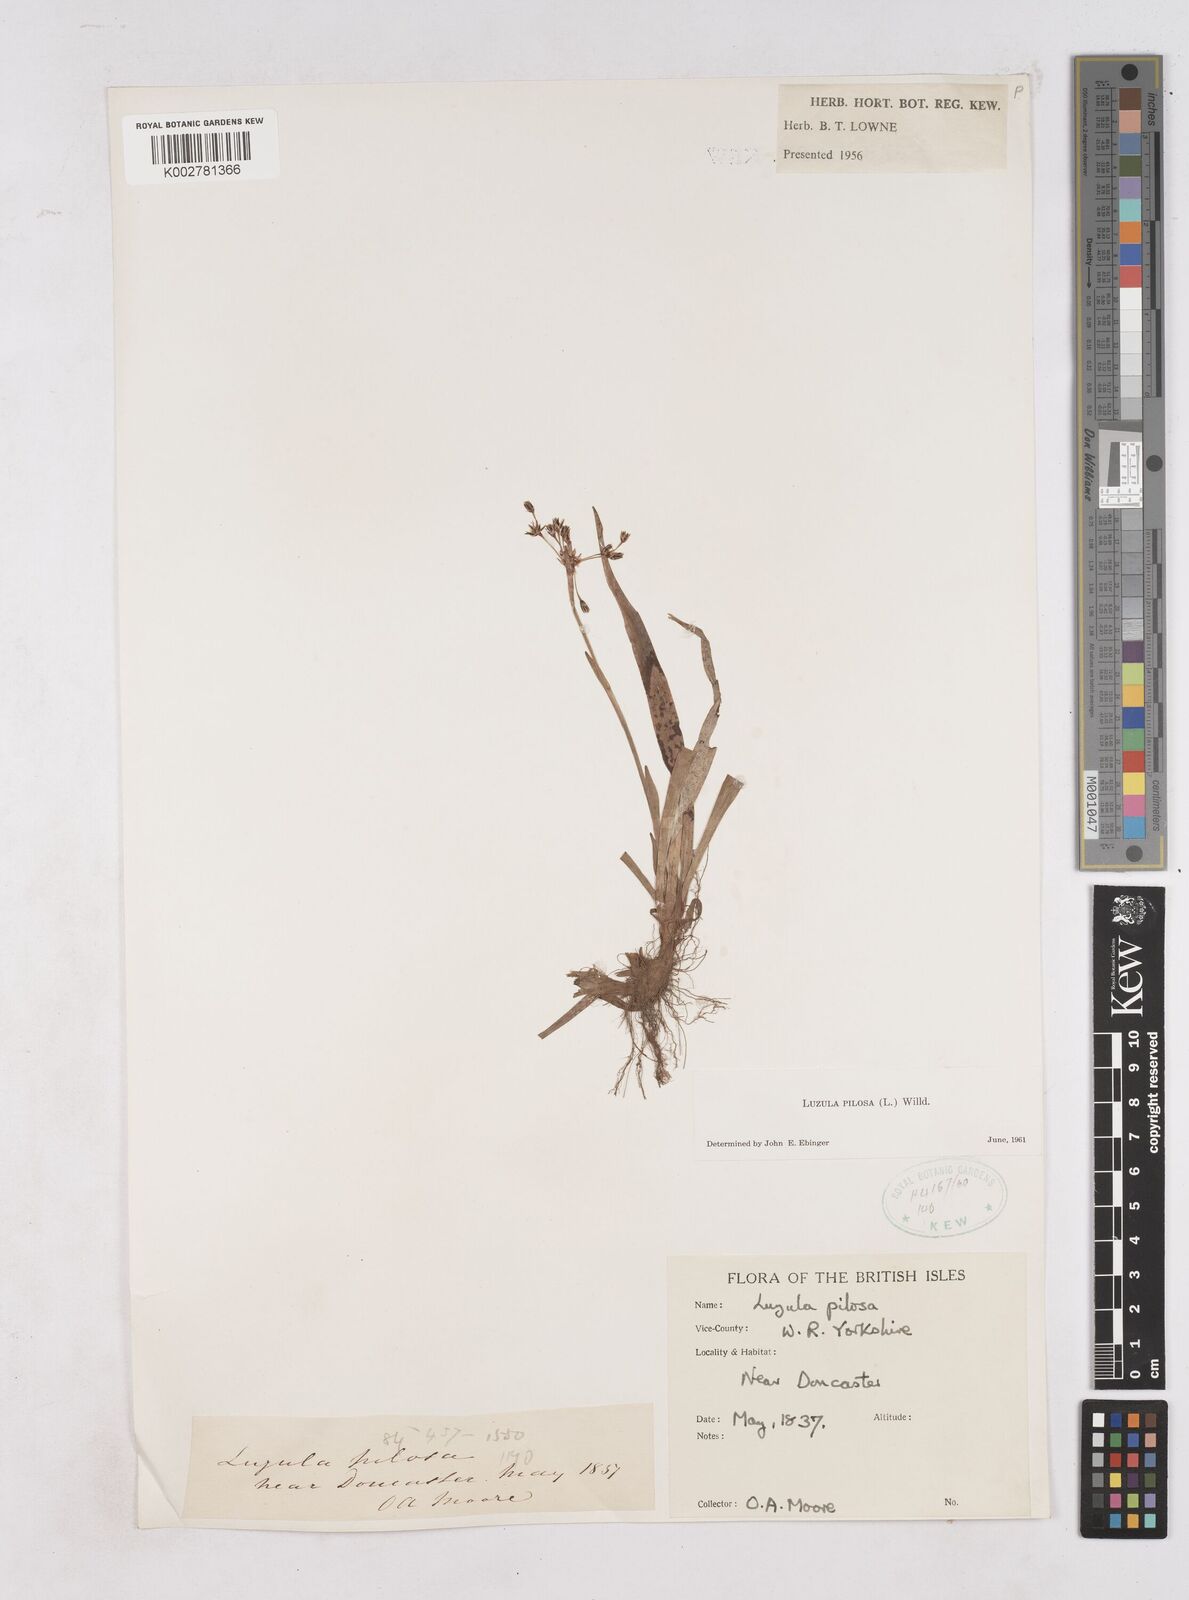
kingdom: Plantae
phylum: Tracheophyta
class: Liliopsida
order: Poales
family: Juncaceae
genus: Luzula
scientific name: Luzula pilosa
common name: Hairy wood-rush
